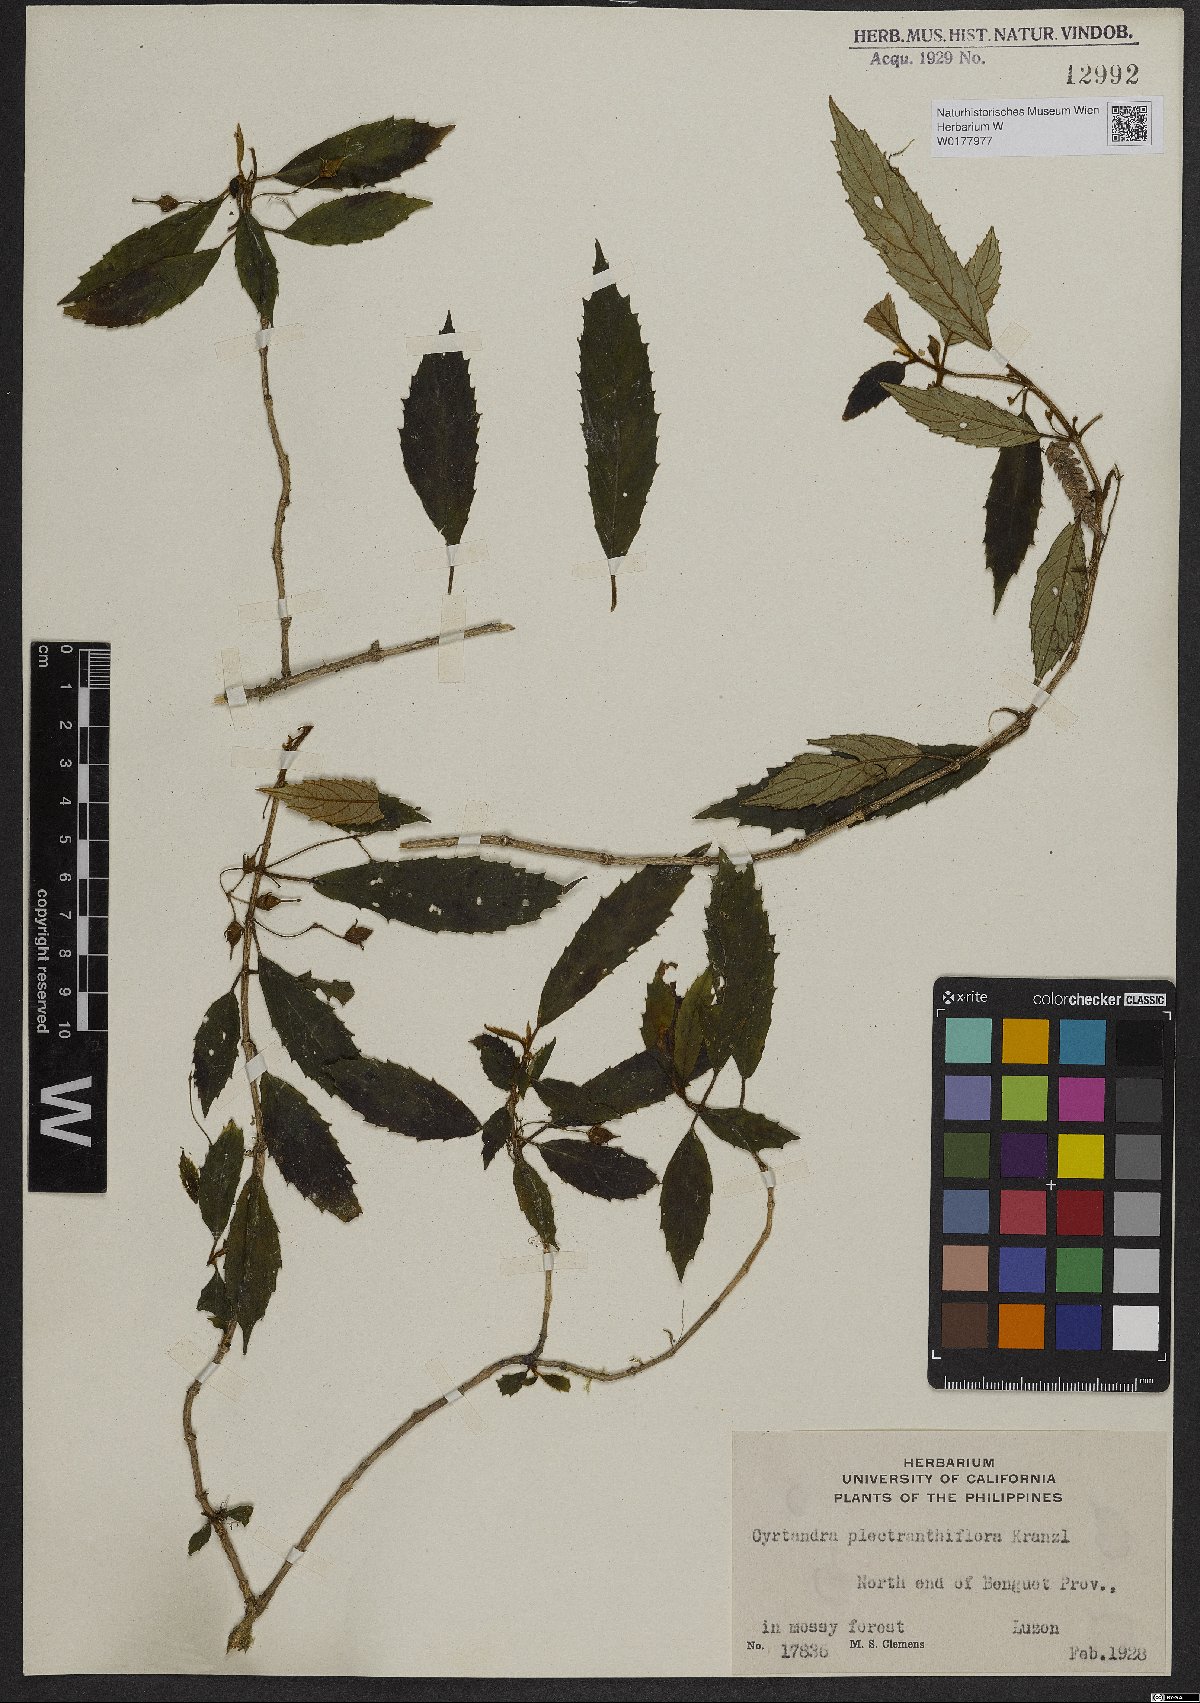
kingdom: Plantae
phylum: Tracheophyta
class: Magnoliopsida
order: Lamiales
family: Gesneriaceae
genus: Cyrtandra
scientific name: Cyrtandra
